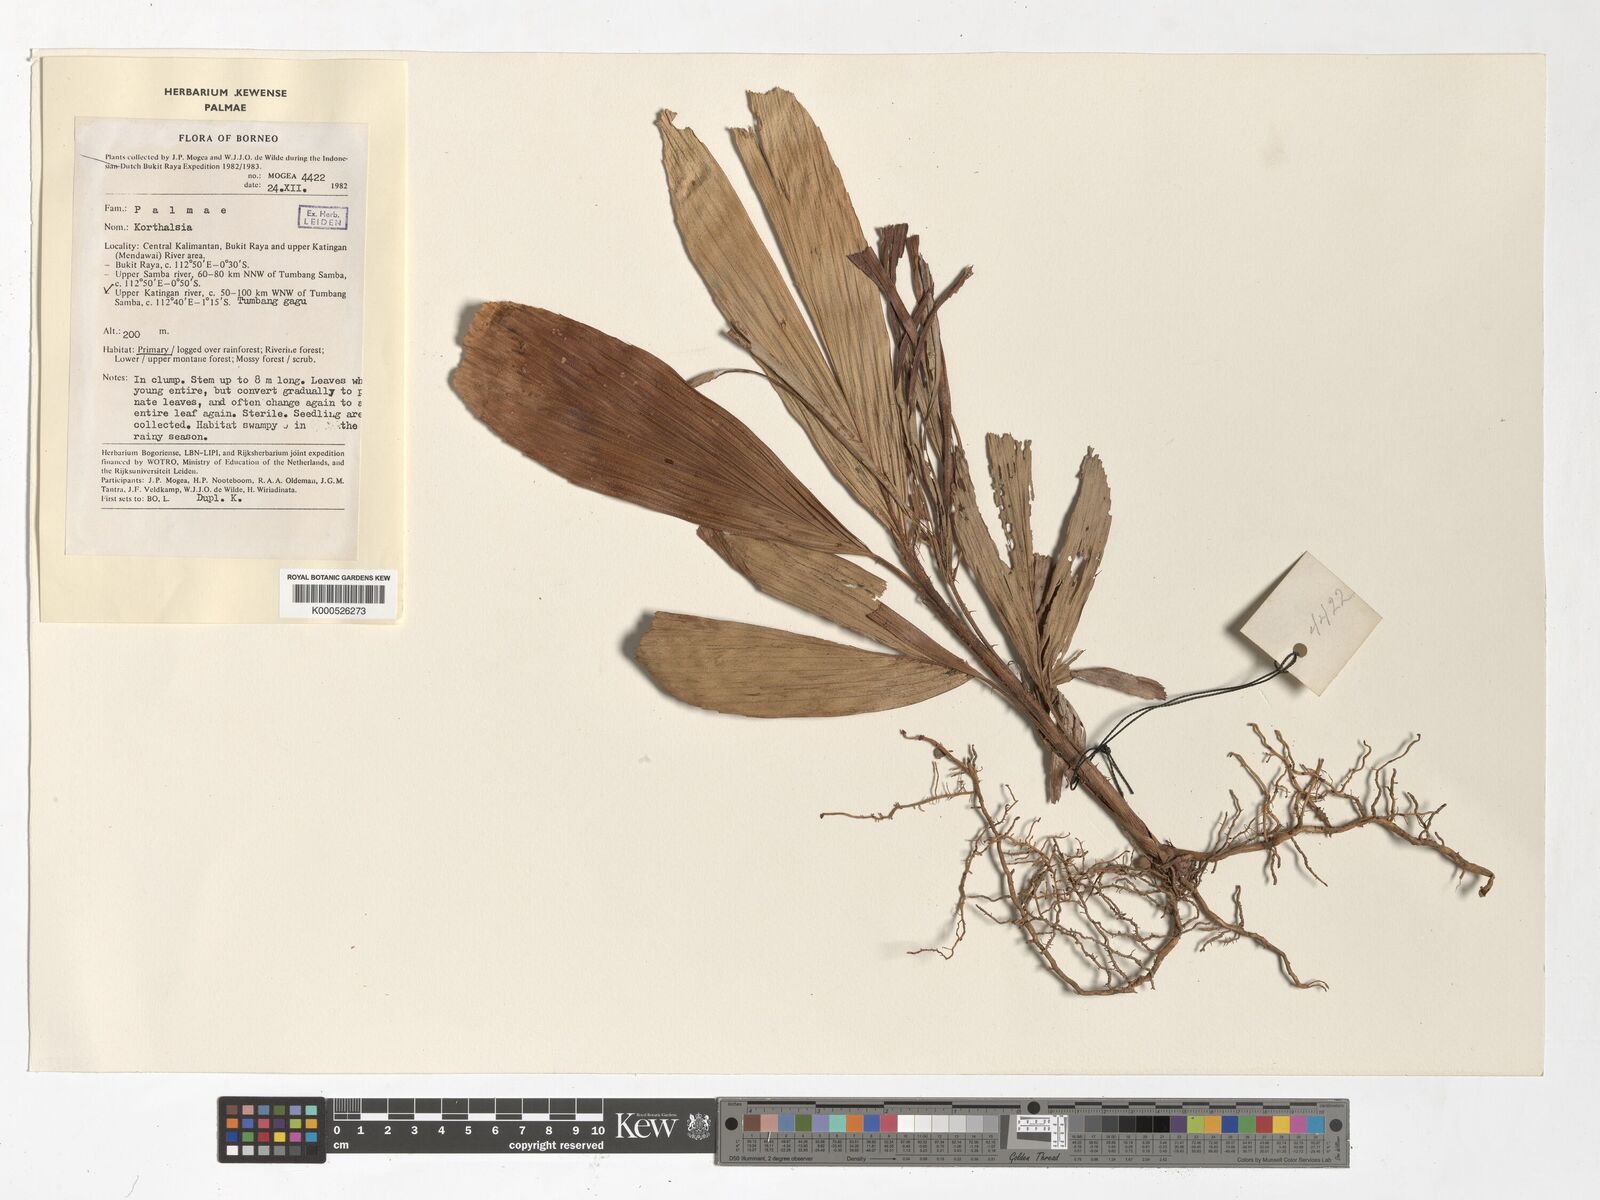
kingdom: Plantae
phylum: Tracheophyta
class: Liliopsida
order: Arecales
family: Arecaceae
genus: Korthalsia
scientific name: Korthalsia
